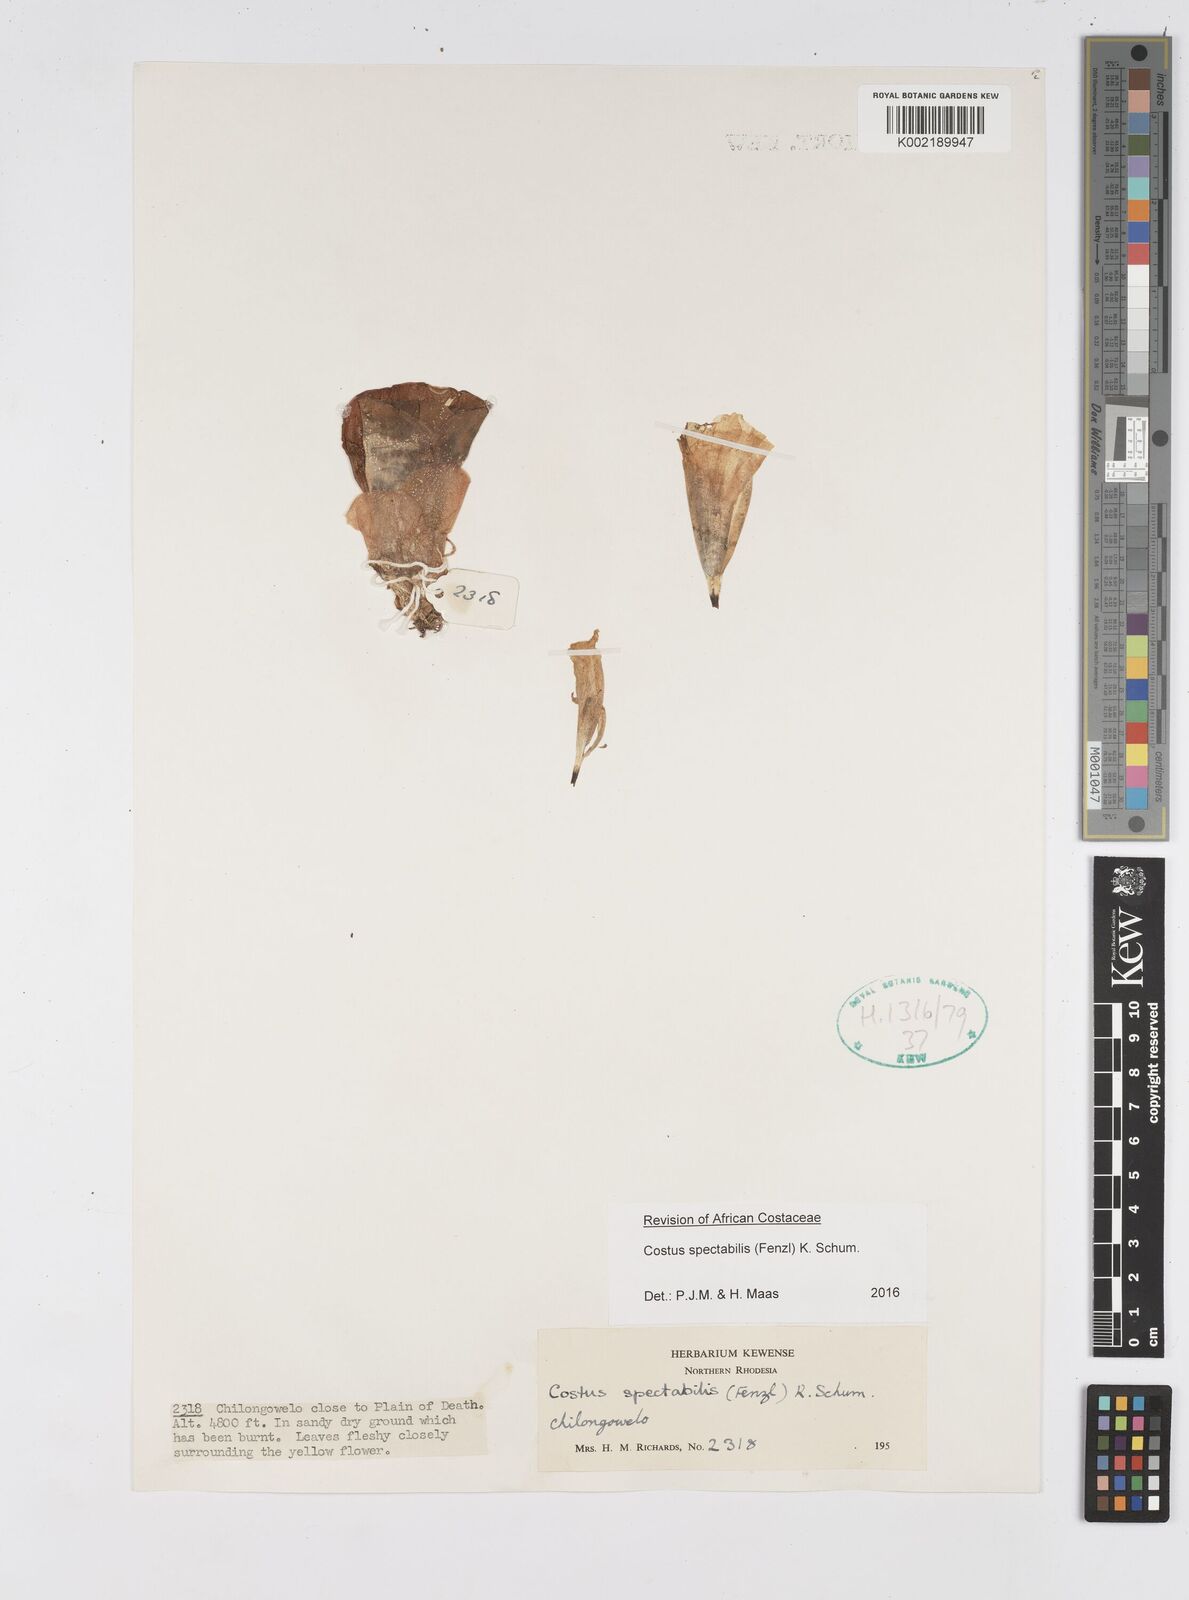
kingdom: Plantae
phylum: Tracheophyta
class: Liliopsida
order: Zingiberales
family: Costaceae
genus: Costus
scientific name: Costus spectabilis
